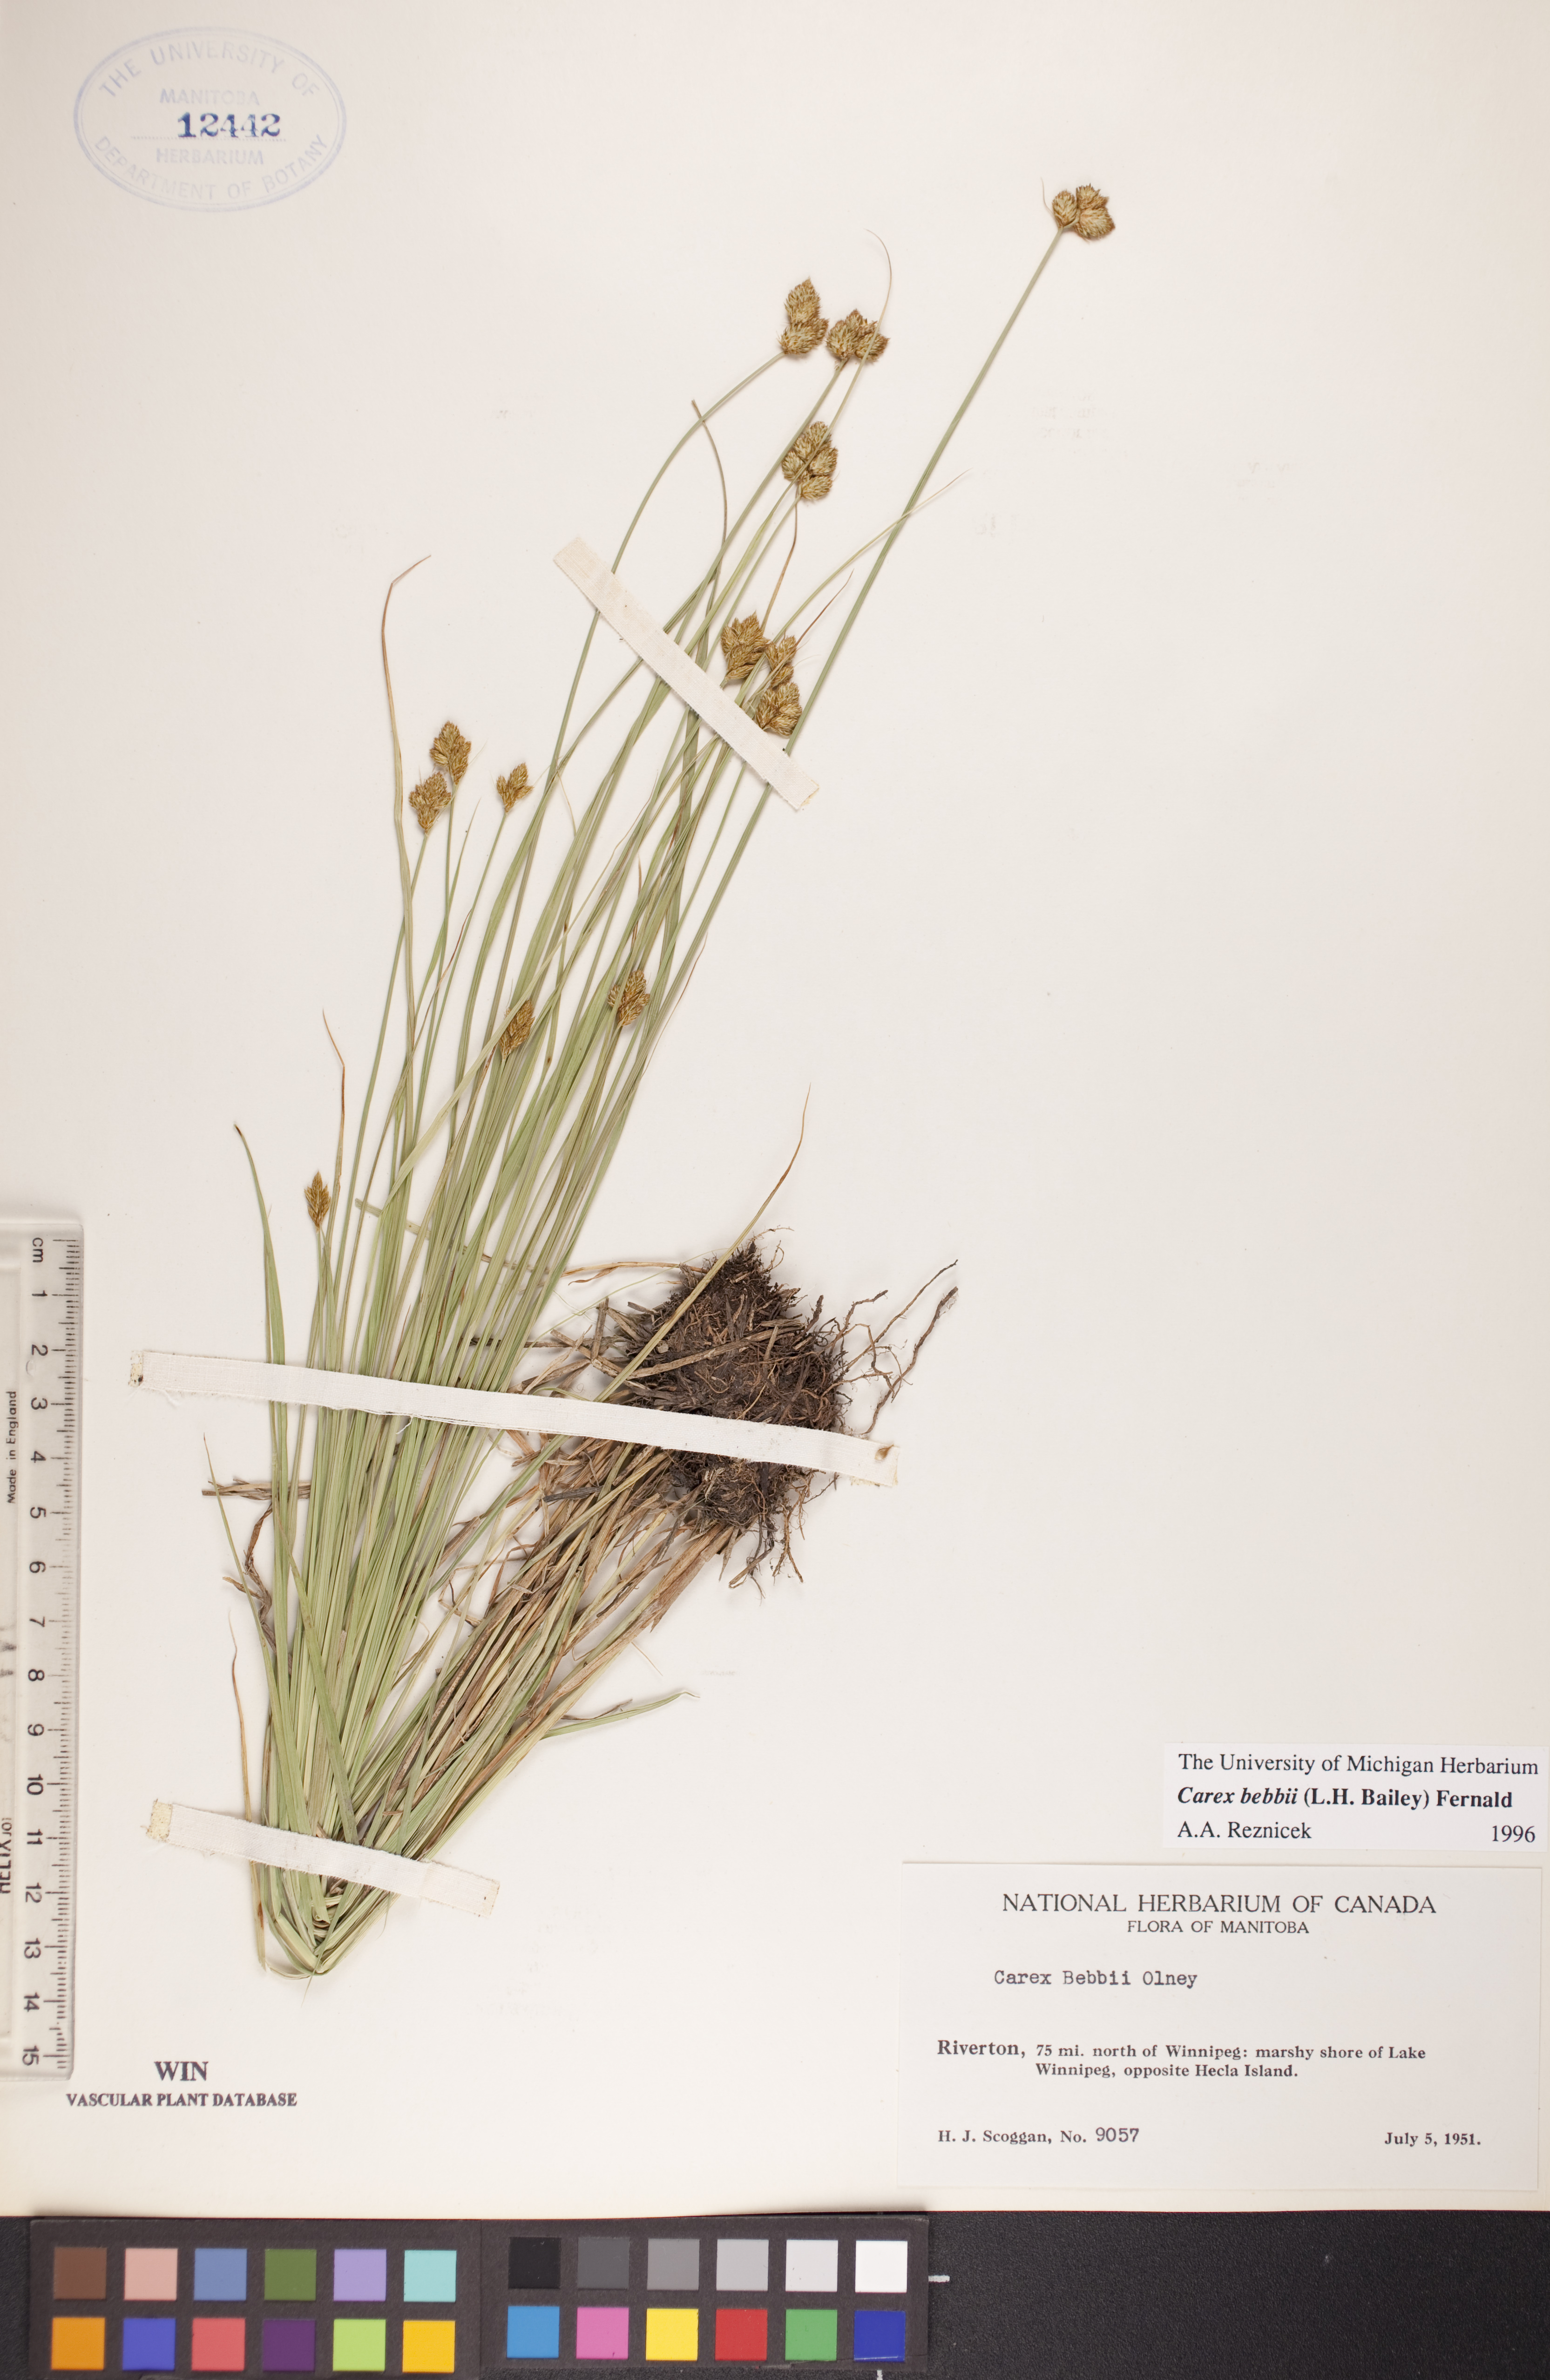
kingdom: Plantae
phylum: Tracheophyta
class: Liliopsida
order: Poales
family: Cyperaceae
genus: Carex
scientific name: Carex bebbii
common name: Bebb's sedge
